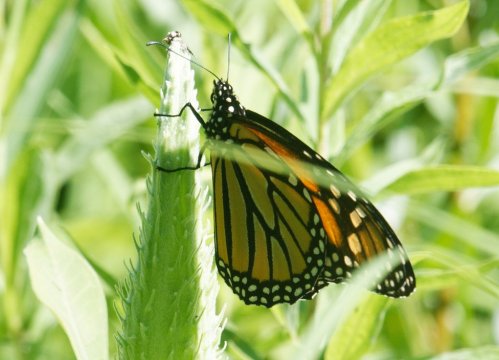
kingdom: Animalia
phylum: Arthropoda
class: Insecta
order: Lepidoptera
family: Nymphalidae
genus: Danaus
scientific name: Danaus plexippus
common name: Monarch
